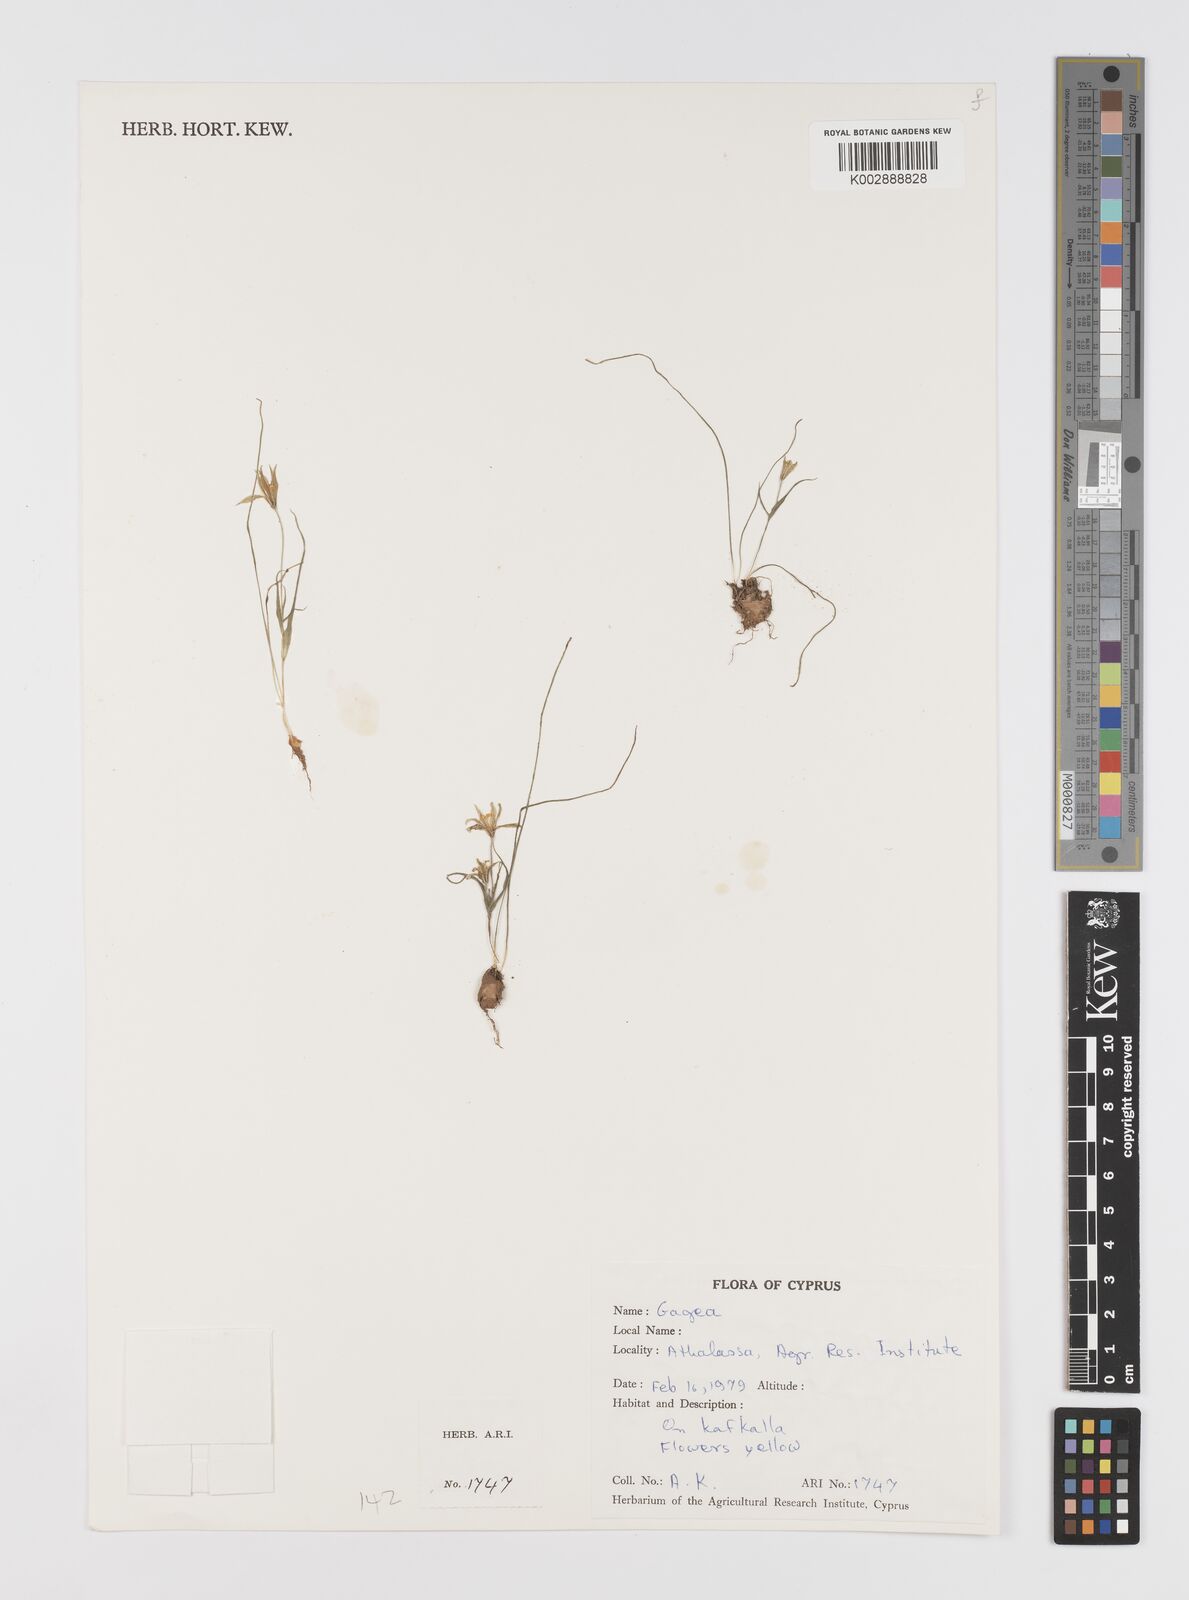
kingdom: Plantae
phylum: Tracheophyta
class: Liliopsida
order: Liliales
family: Liliaceae
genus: Gagea
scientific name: Gagea
